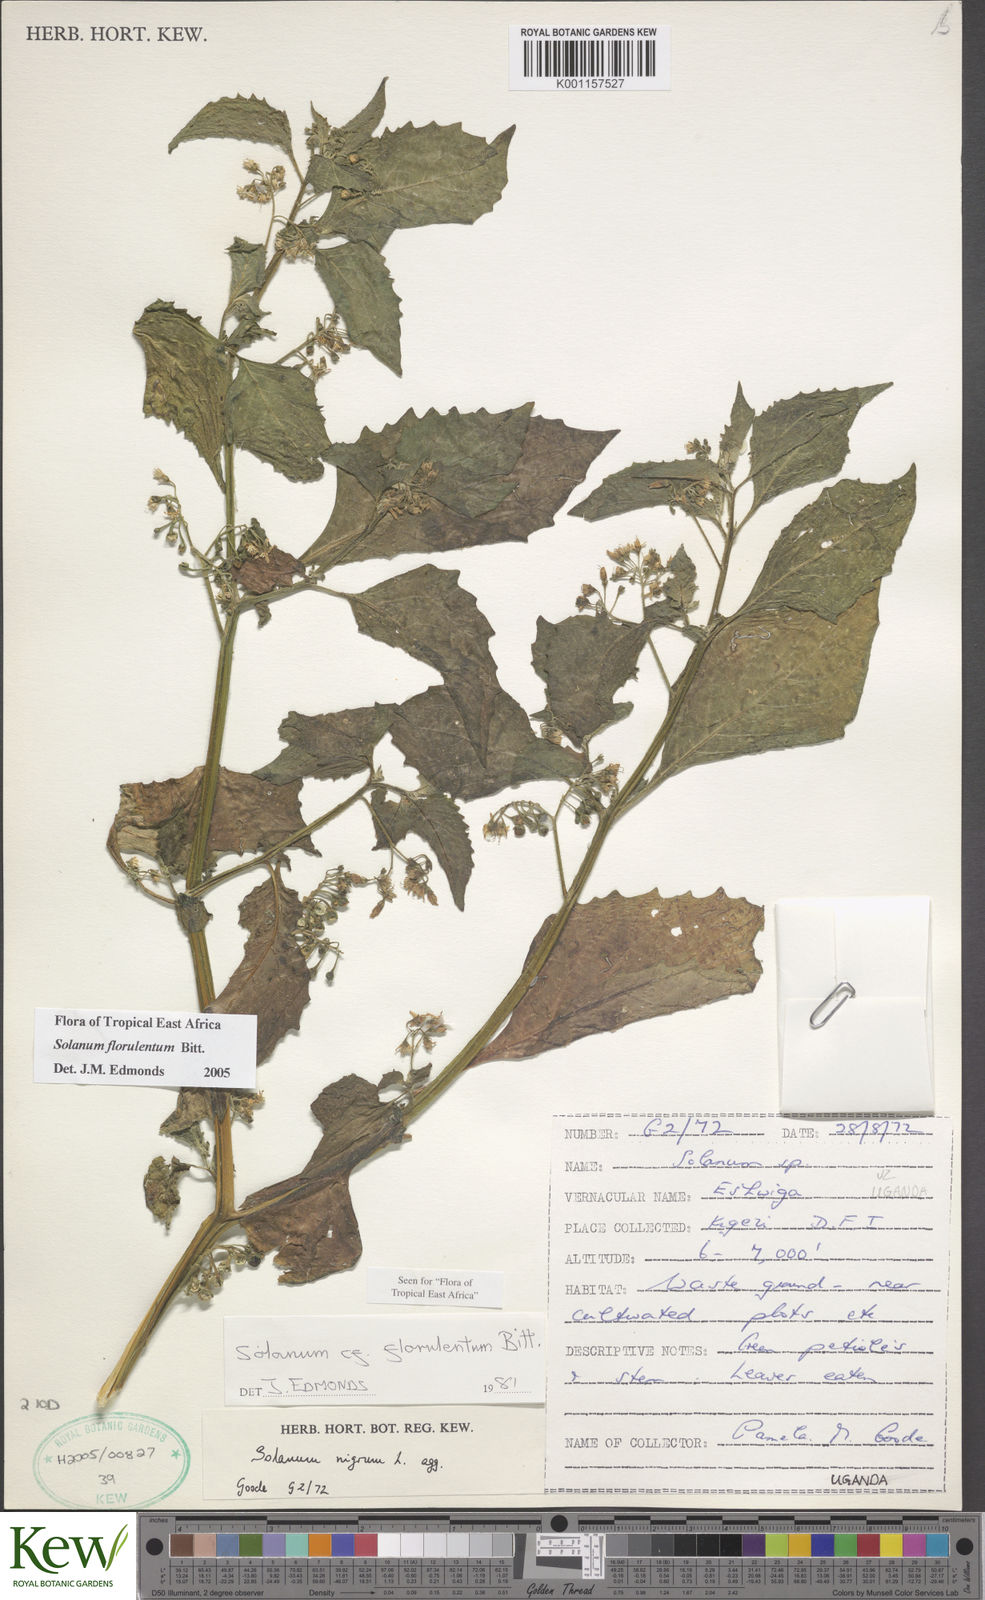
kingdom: Plantae
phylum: Tracheophyta
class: Magnoliopsida
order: Solanales
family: Solanaceae
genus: Solanum
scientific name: Solanum tarderemotum
